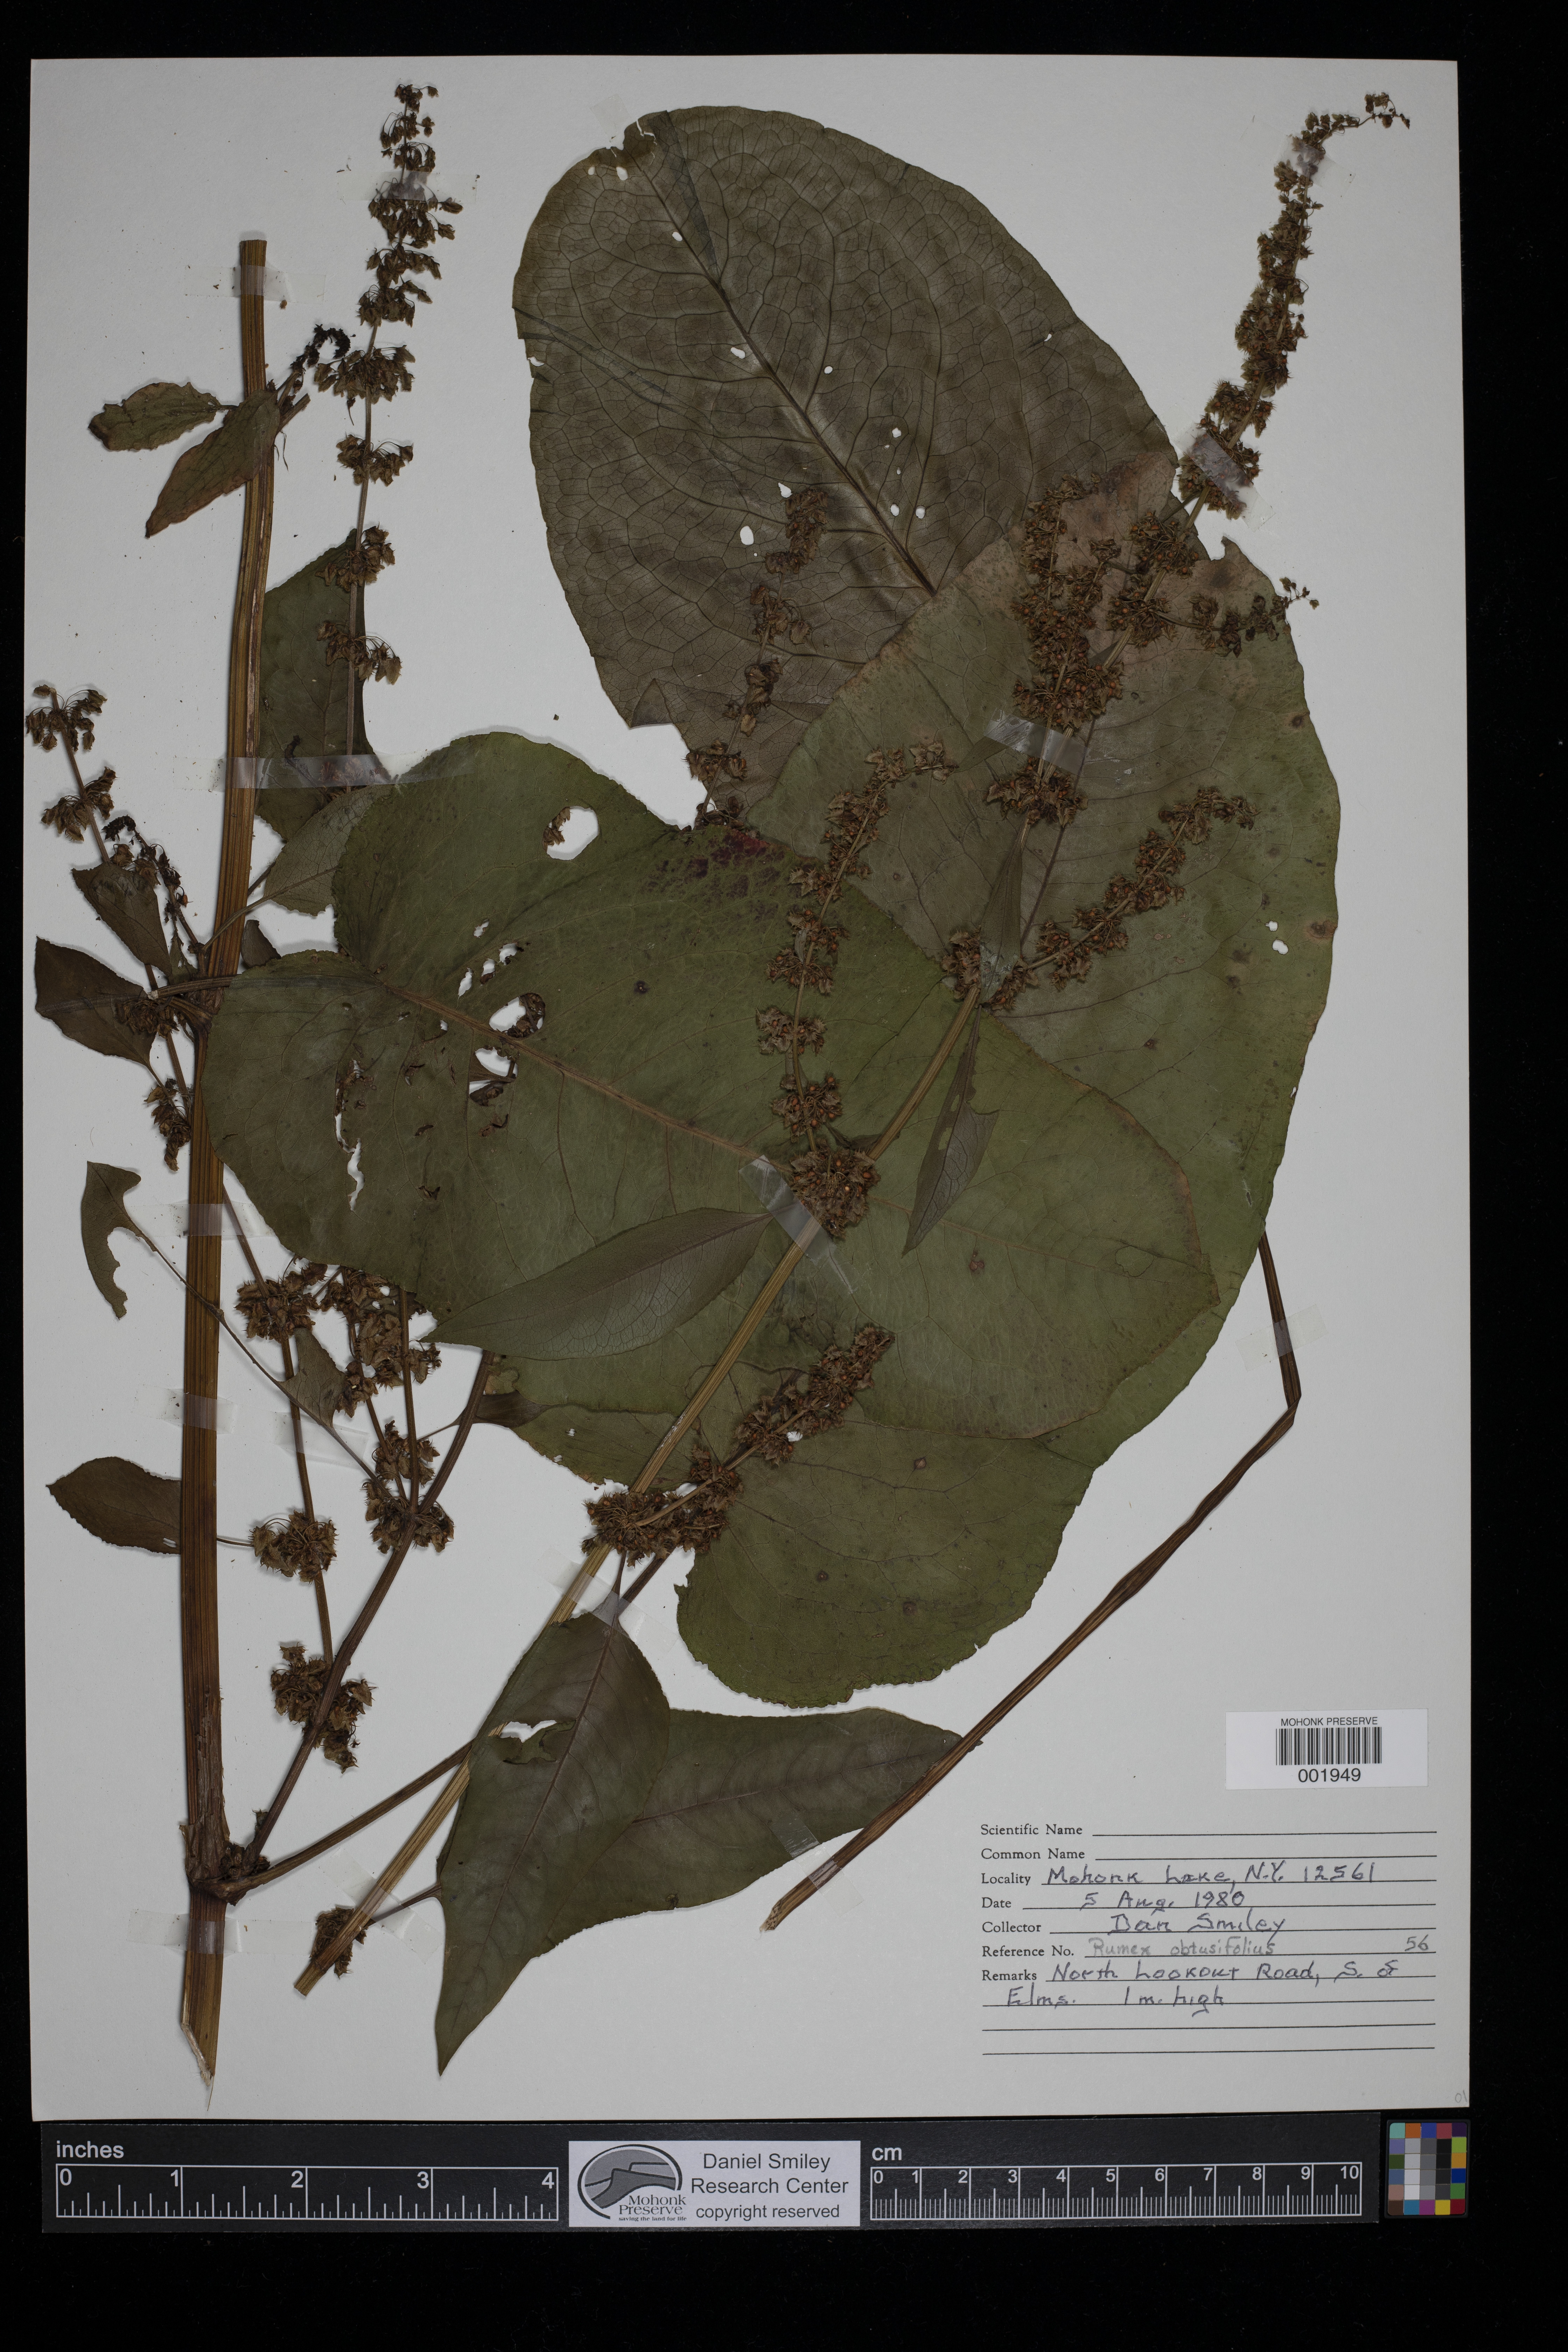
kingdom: Plantae
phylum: Tracheophyta
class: Magnoliopsida
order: Caryophyllales
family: Polygonaceae
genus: Rumex
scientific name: Rumex obtusifolius
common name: Bitter dock
